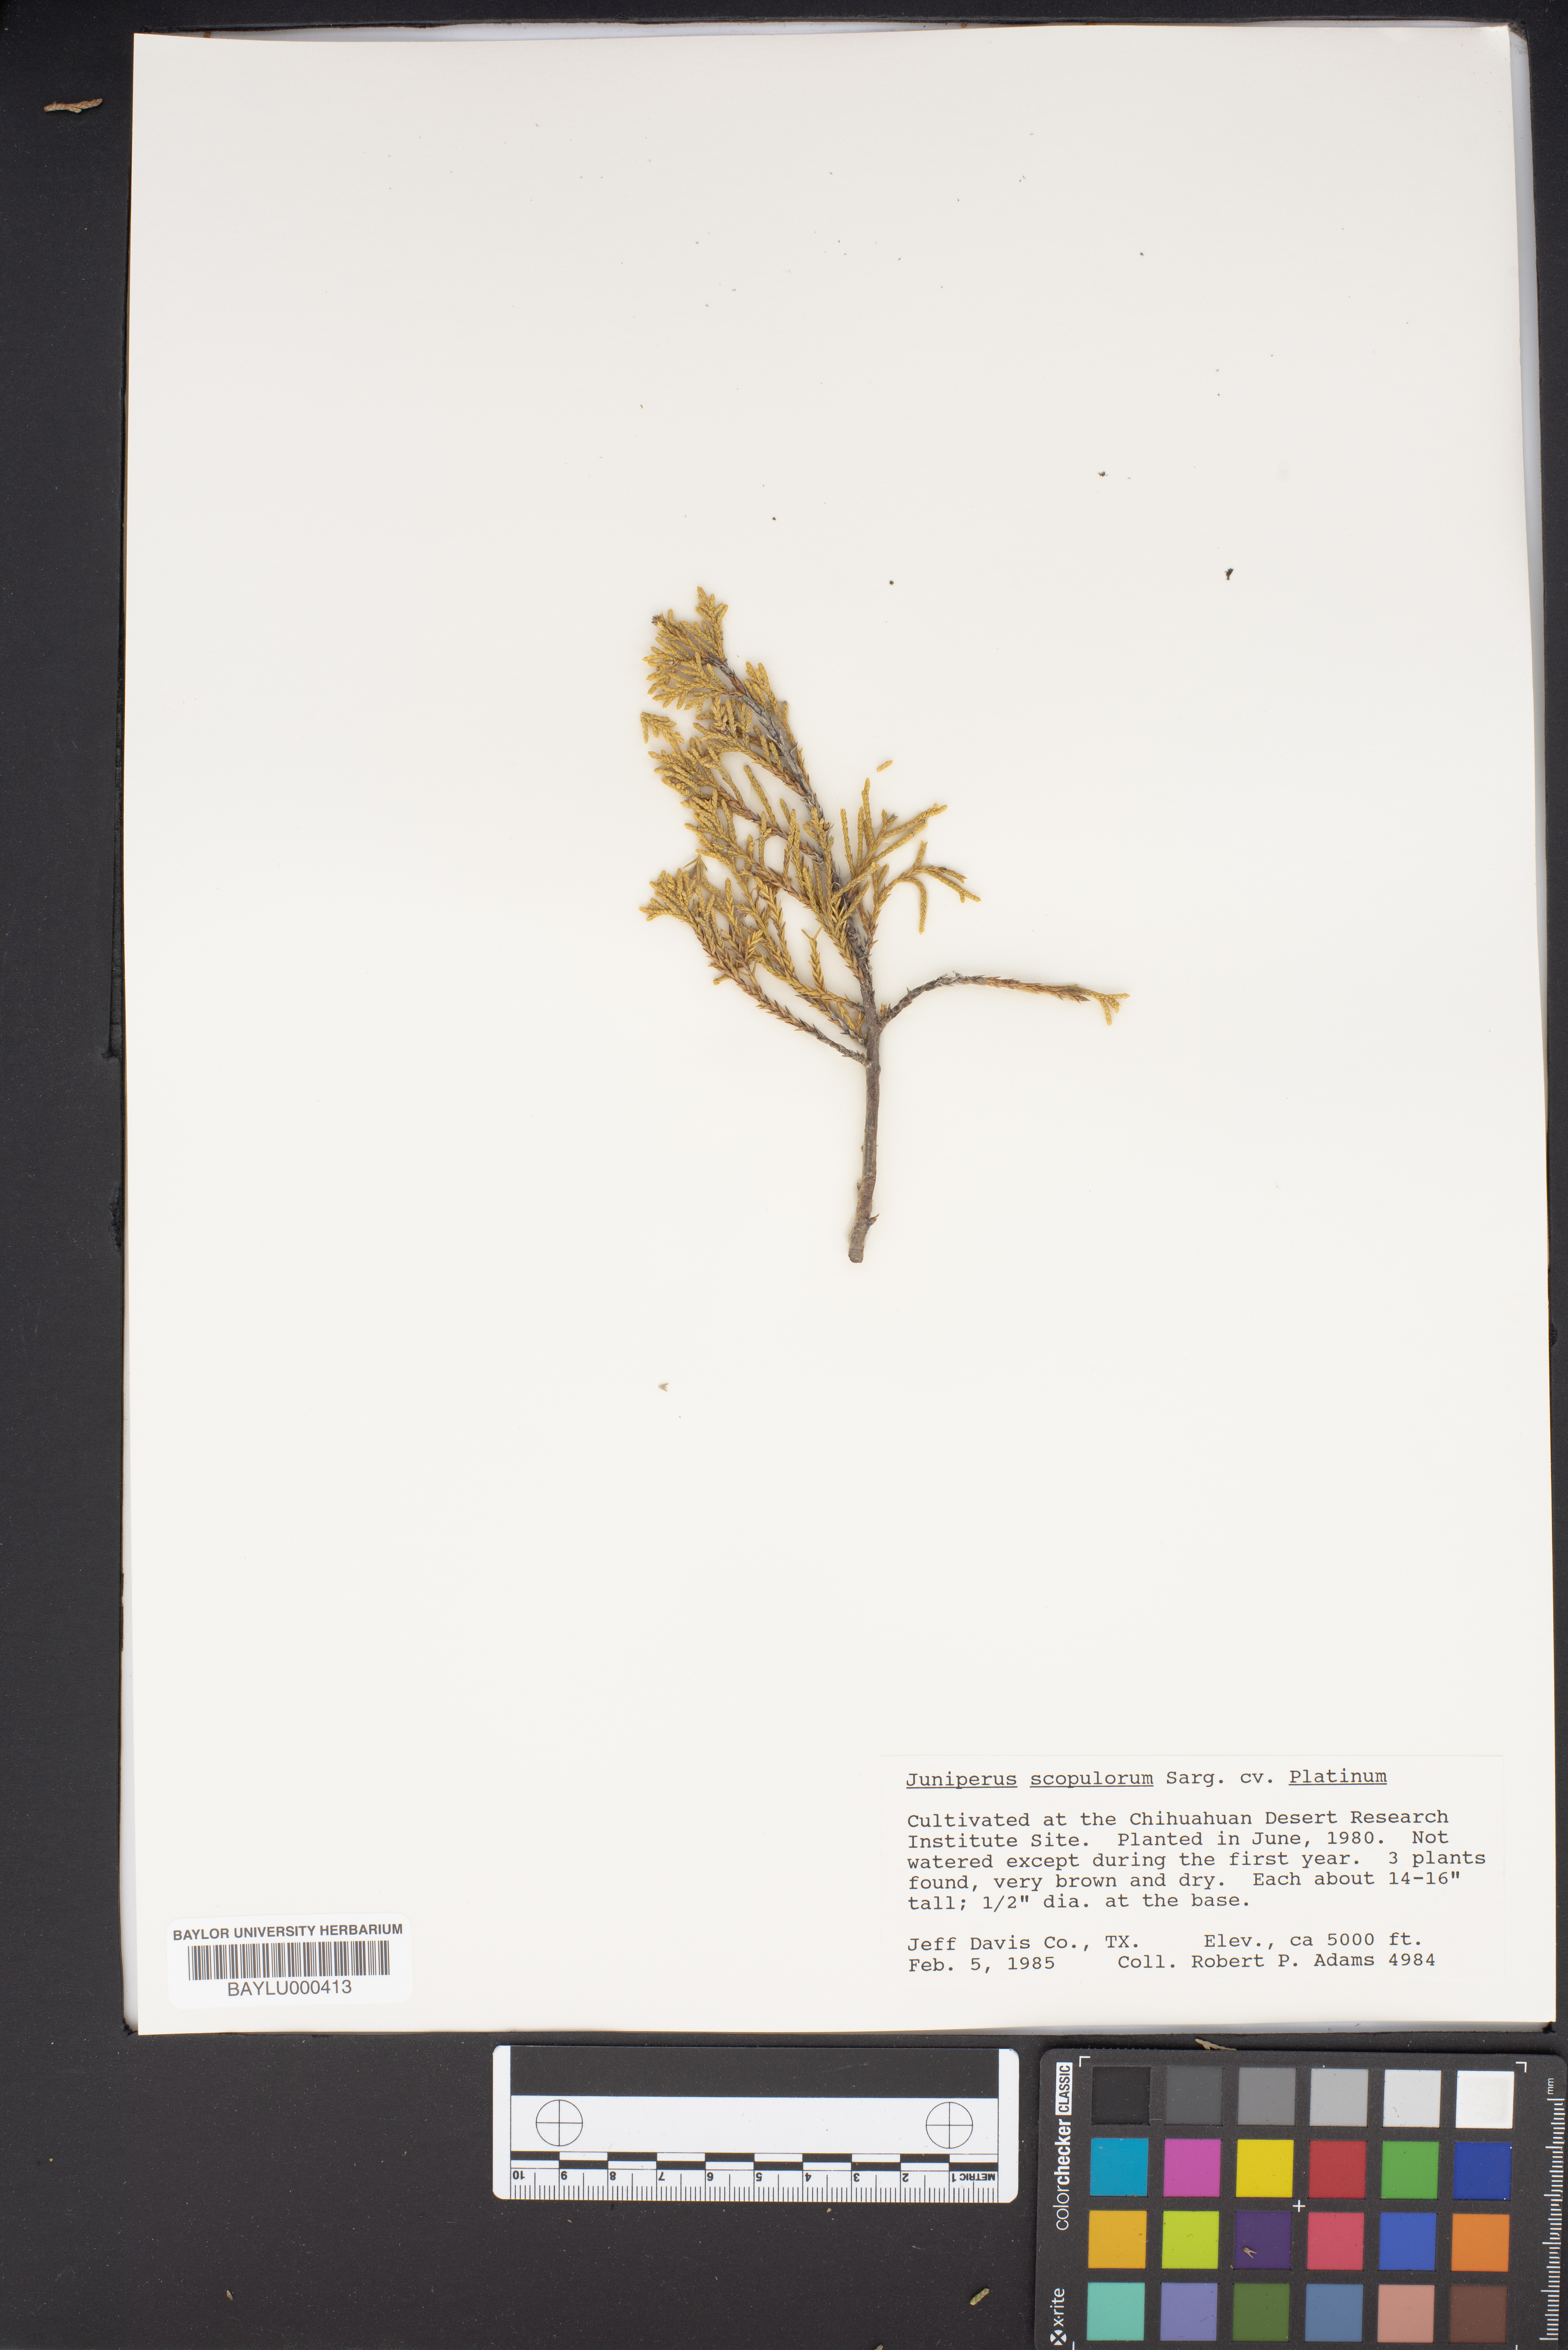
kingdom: Plantae
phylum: Tracheophyta
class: Pinopsida
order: Pinales
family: Cupressaceae
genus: Juniperus
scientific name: Juniperus scopulorum
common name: Rocky mountain juniper
